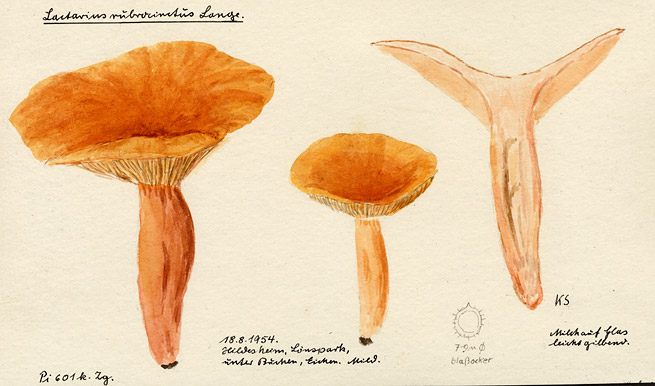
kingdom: Fungi
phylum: Basidiomycota
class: Agaricomycetes
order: Russulales
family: Russulaceae
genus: Lactarius
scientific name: Lactarius fulvissimus
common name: Tawny milkcap
